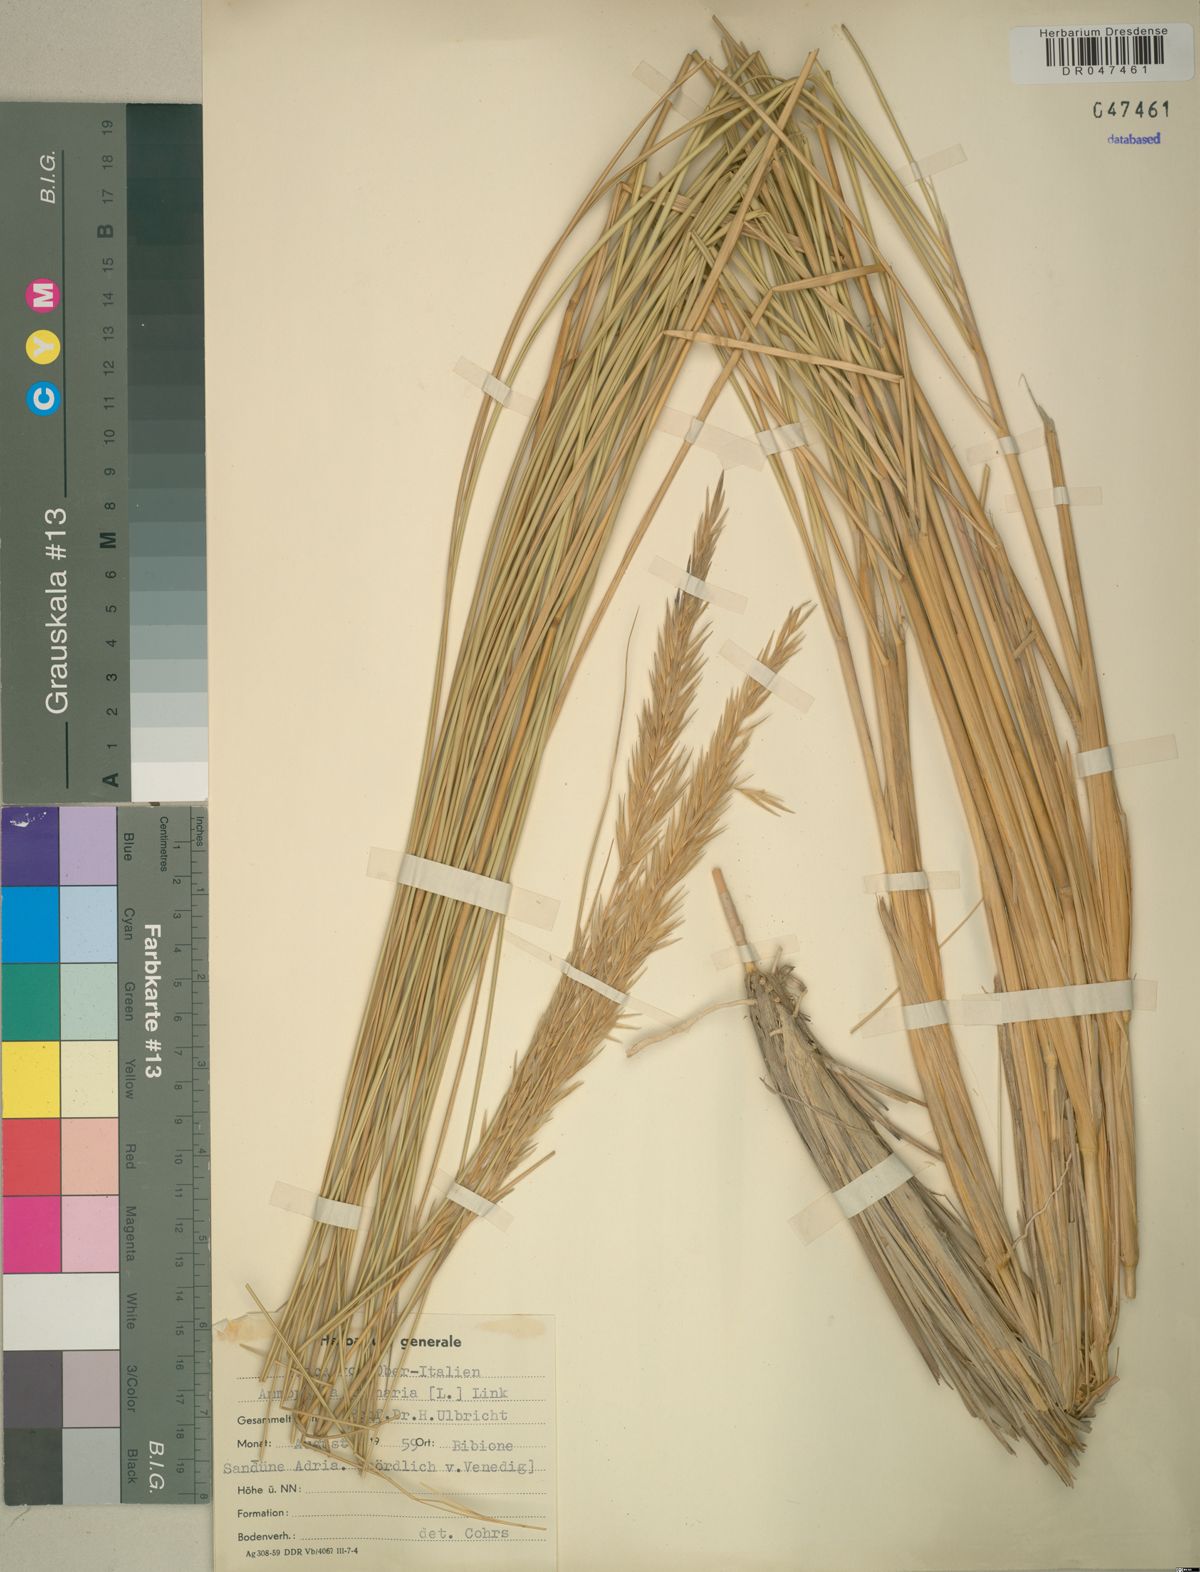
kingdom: Plantae
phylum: Tracheophyta
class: Liliopsida
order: Poales
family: Poaceae
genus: Calamagrostis
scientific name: Calamagrostis arenaria
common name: European beachgrass
